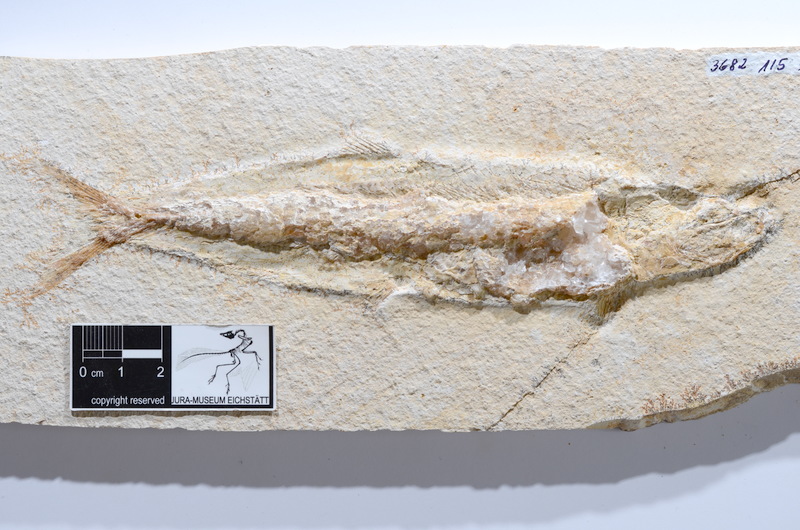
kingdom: Animalia
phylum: Chordata
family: Ascalaboidae
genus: Tharsis
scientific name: Tharsis dubius
